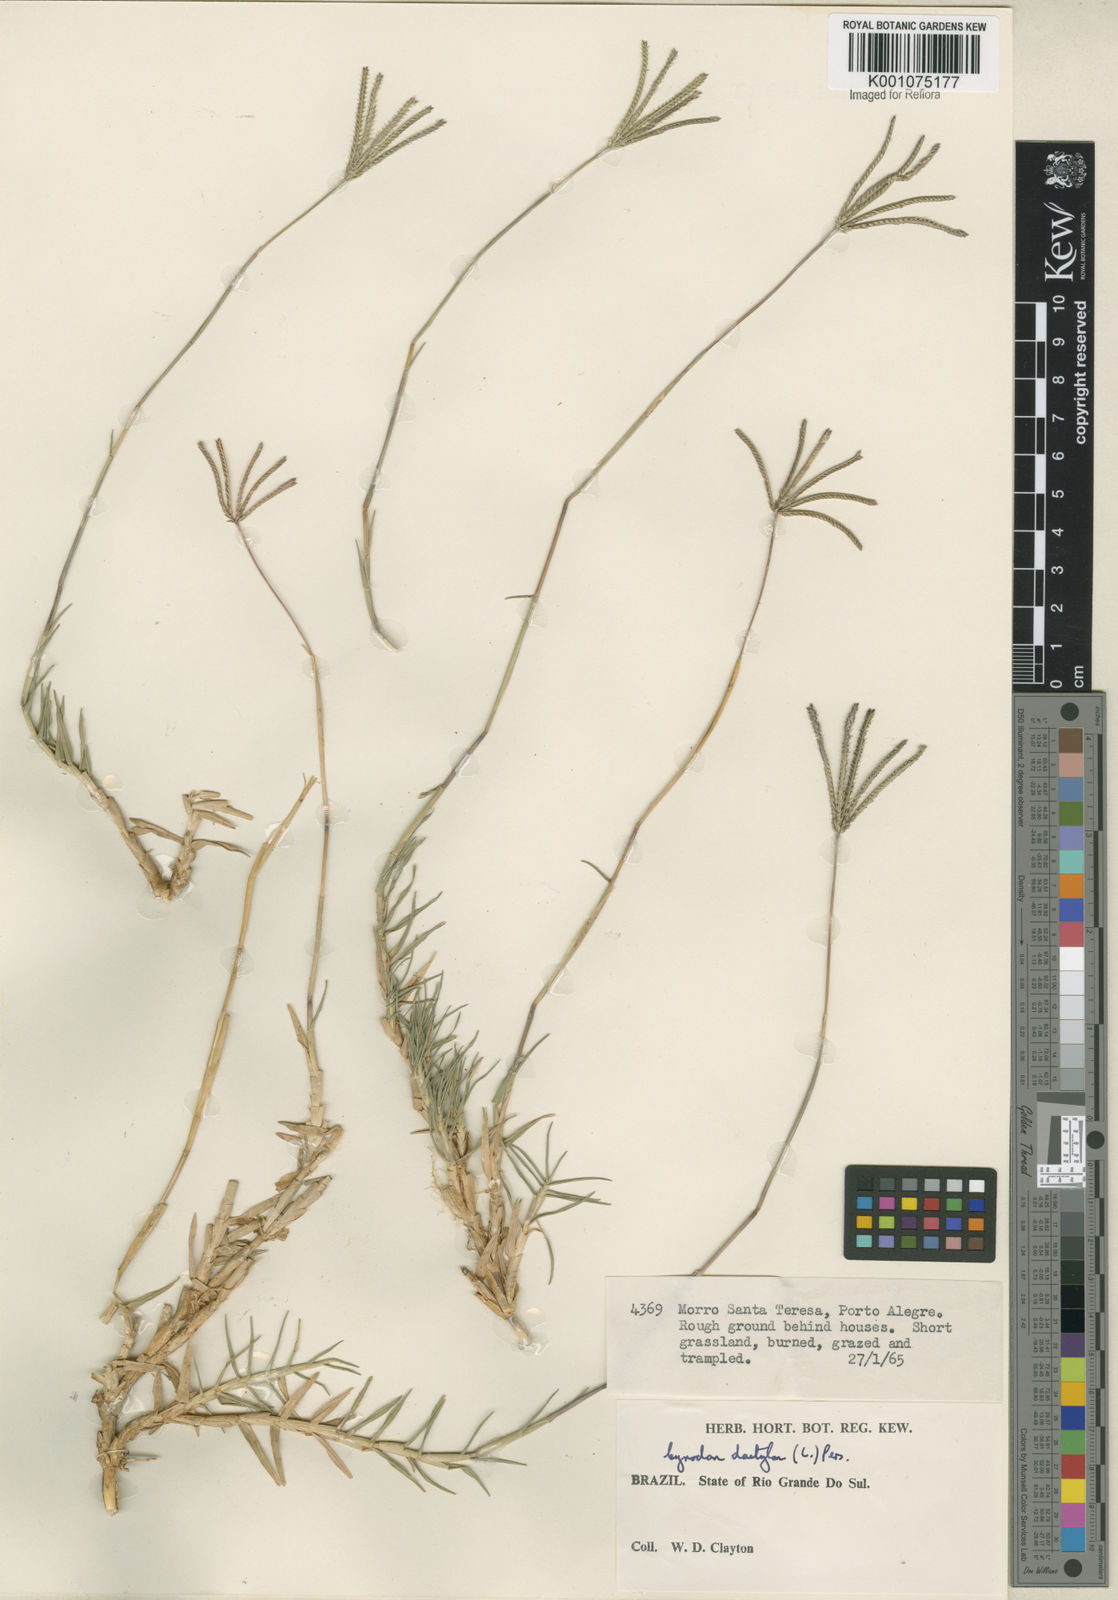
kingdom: Plantae
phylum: Tracheophyta
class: Liliopsida
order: Poales
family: Poaceae
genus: Cynodon
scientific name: Cynodon dactylon
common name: Bermuda grass
